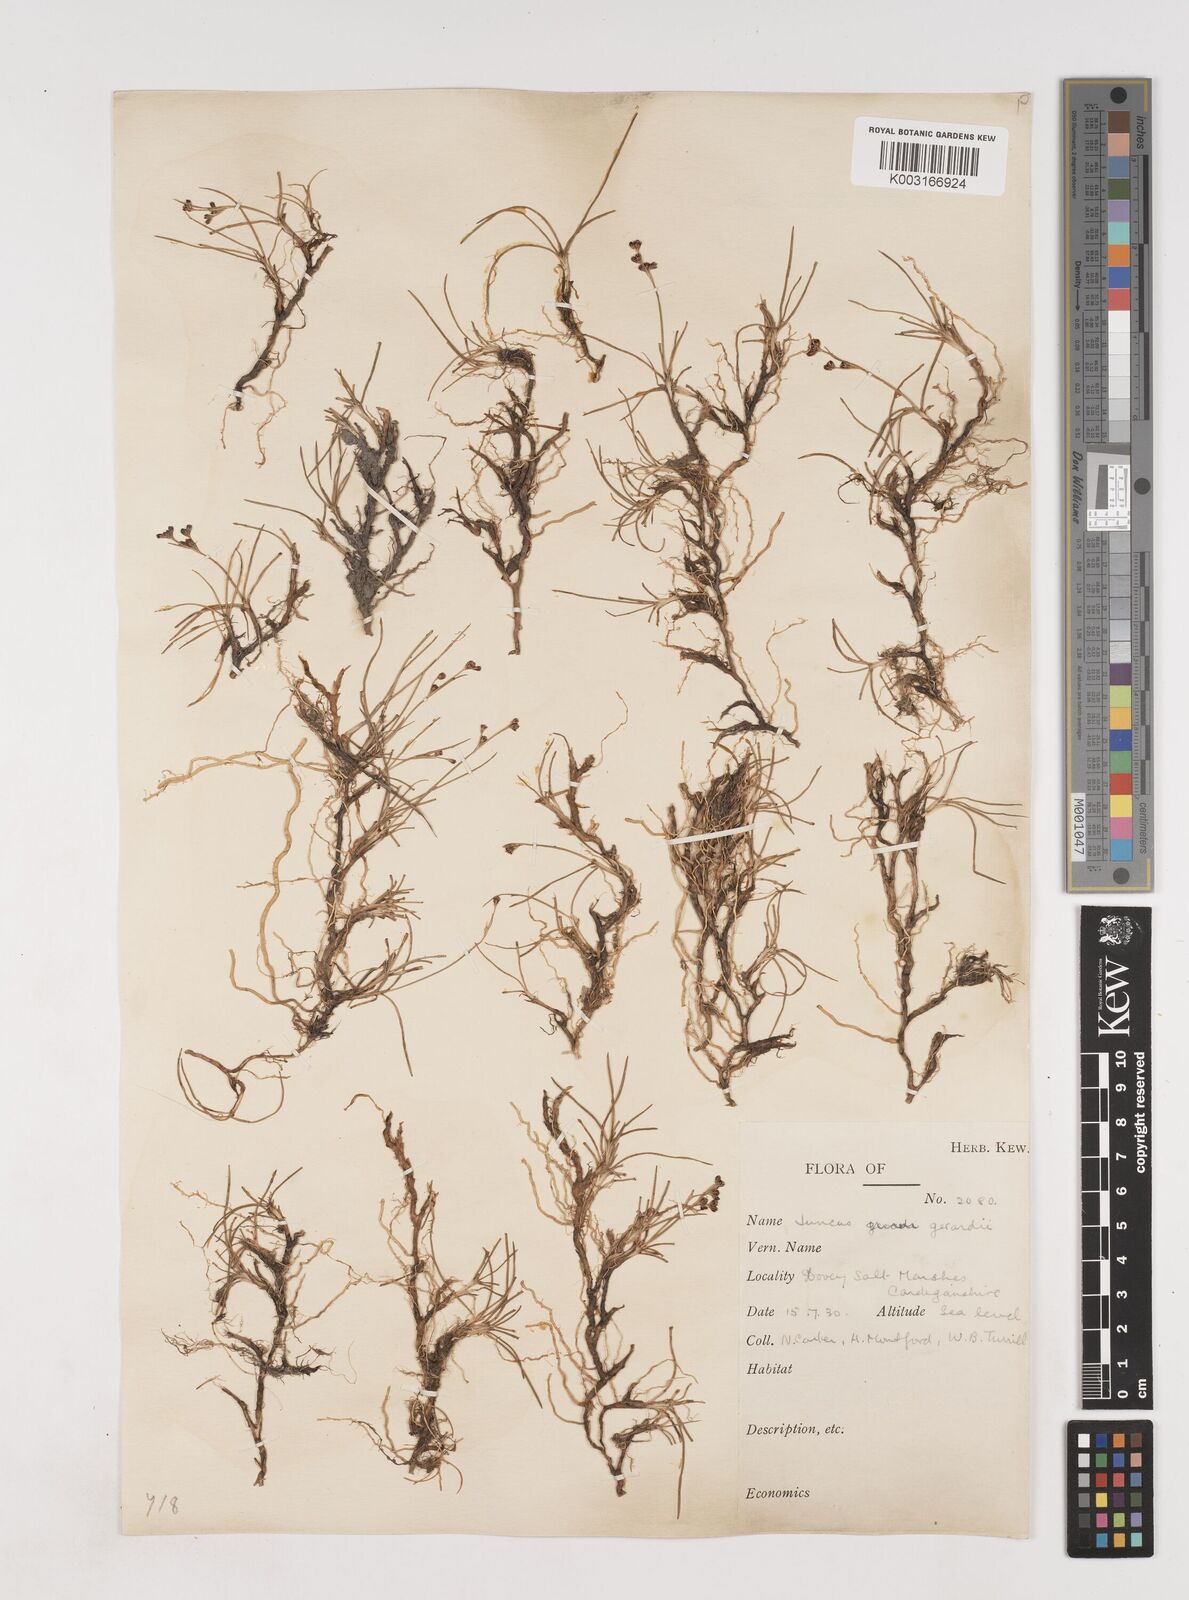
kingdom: Plantae
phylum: Tracheophyta
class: Liliopsida
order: Poales
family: Juncaceae
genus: Juncus
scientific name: Juncus gerardi
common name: Saltmarsh rush
